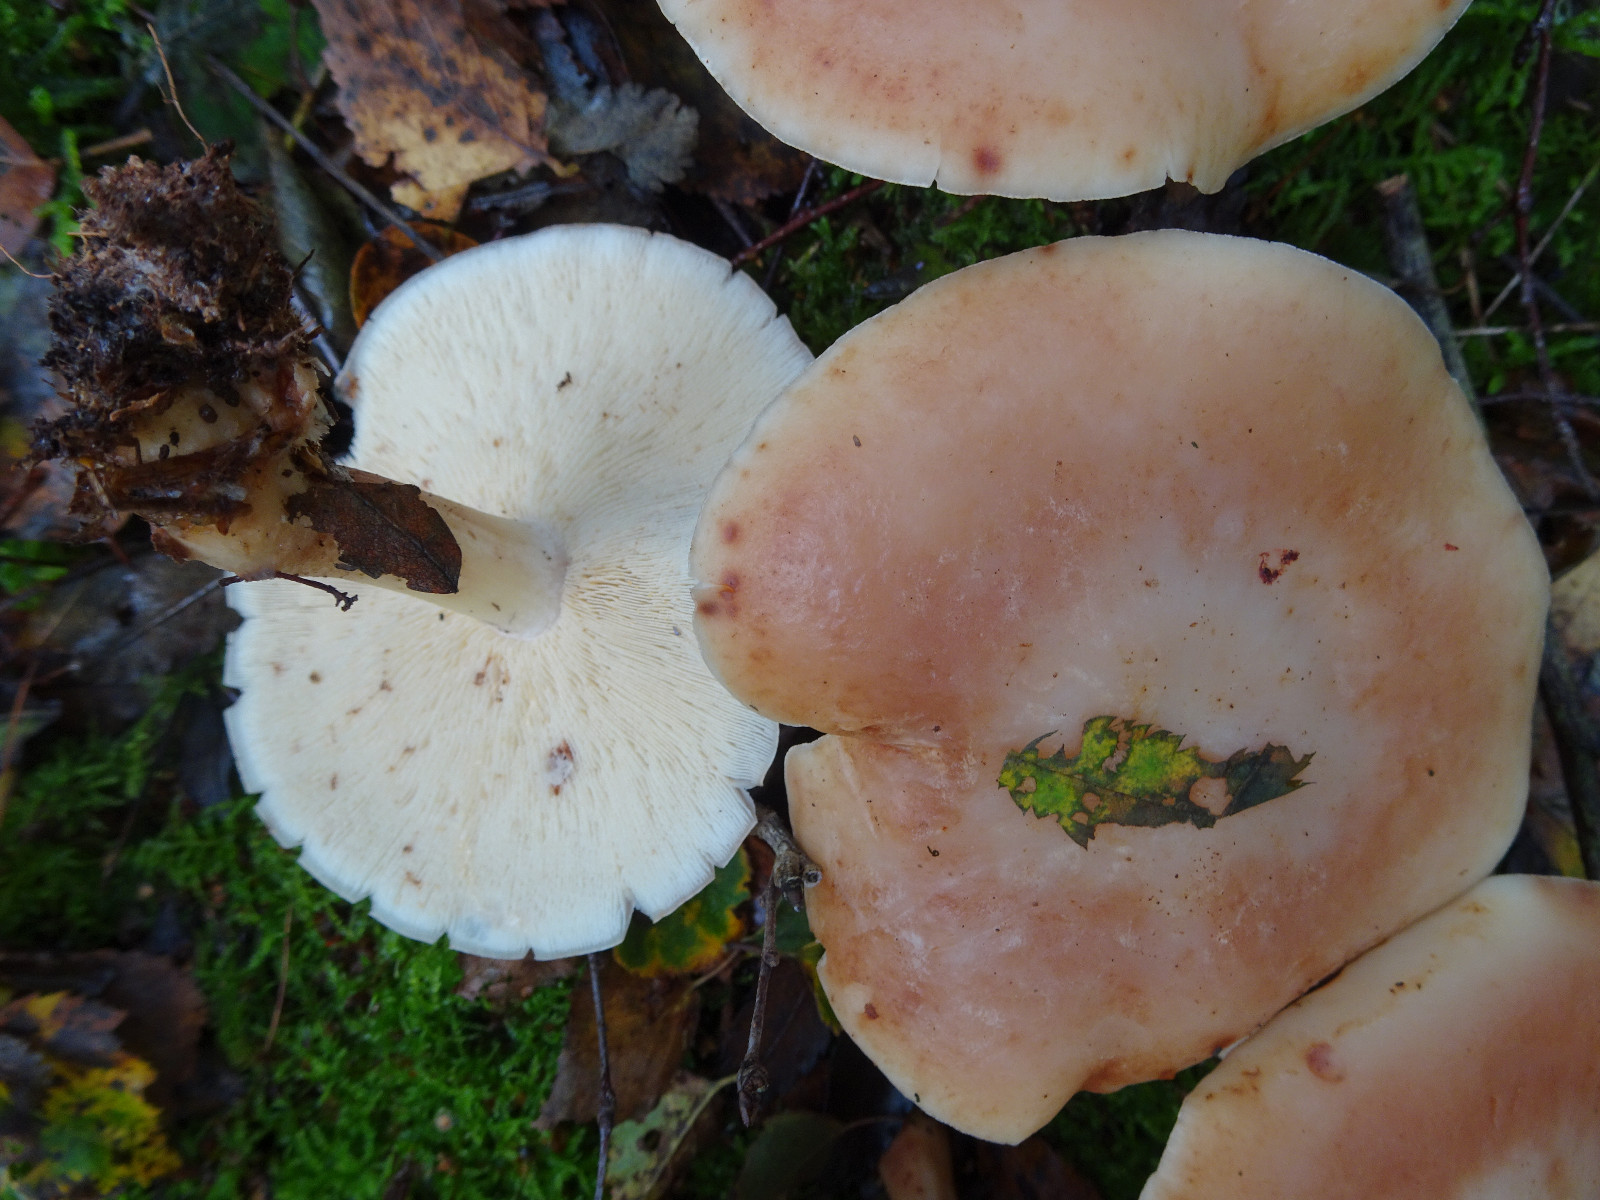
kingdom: Fungi
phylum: Basidiomycota
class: Agaricomycetes
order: Agaricales
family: Omphalotaceae
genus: Rhodocollybia
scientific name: Rhodocollybia maculata
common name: plettet fladhat
